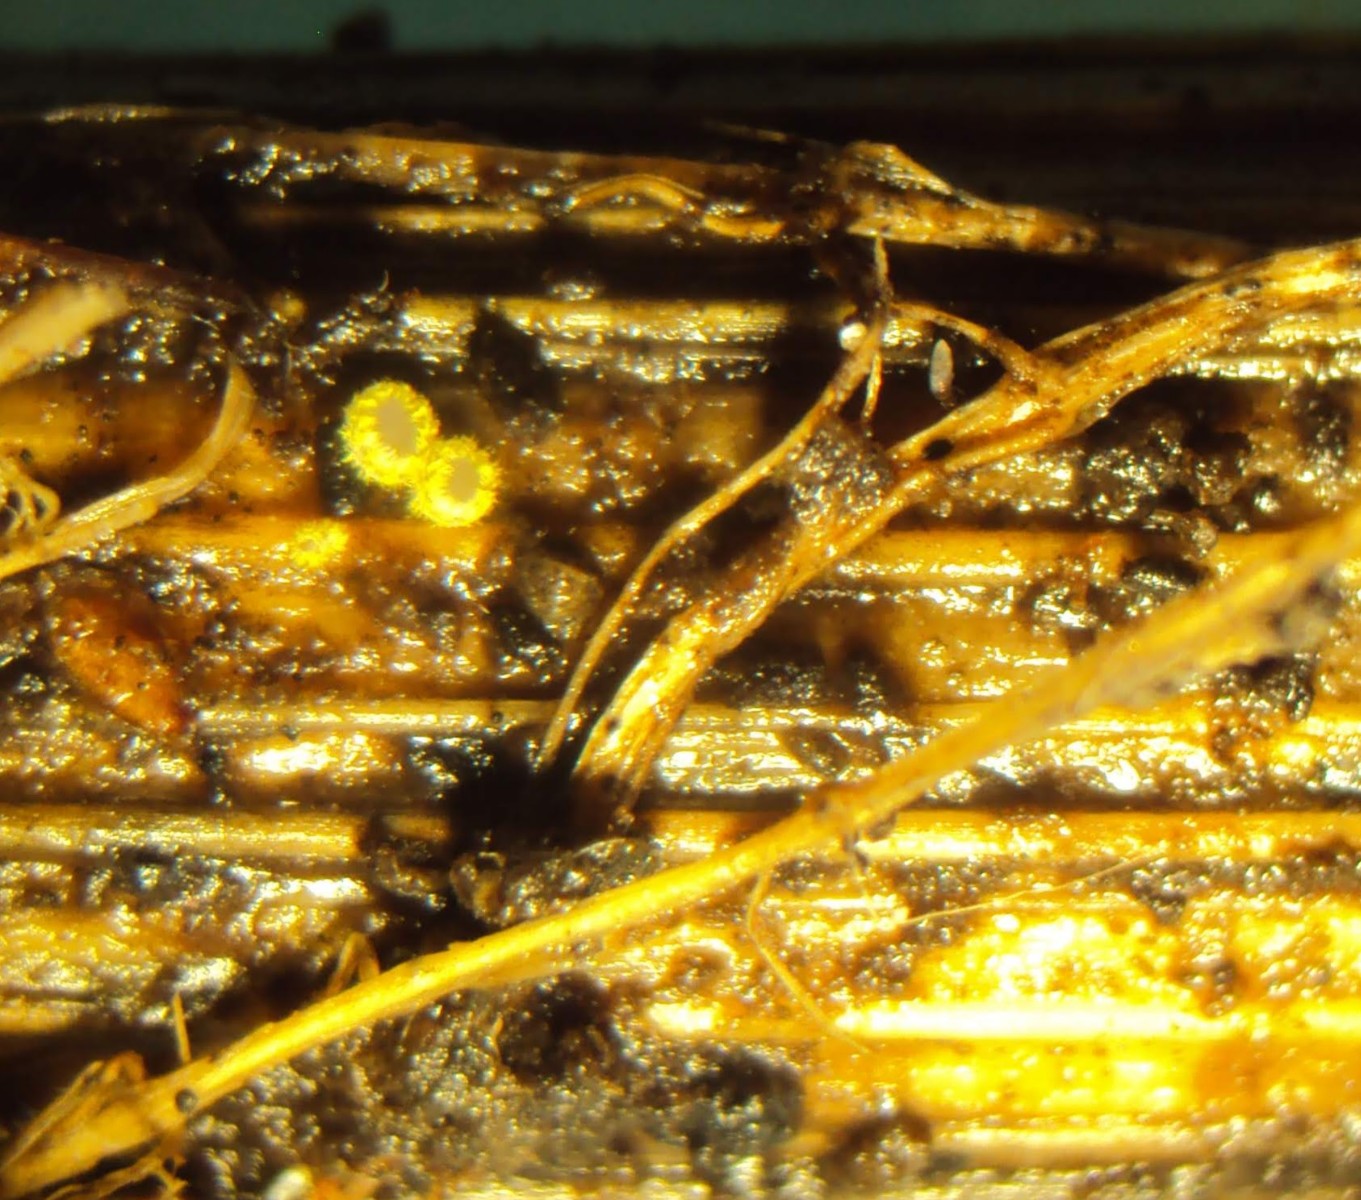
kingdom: Fungi
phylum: Ascomycota
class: Leotiomycetes
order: Helotiales
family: Lachnaceae
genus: Trichopeziza
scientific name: Trichopeziza
